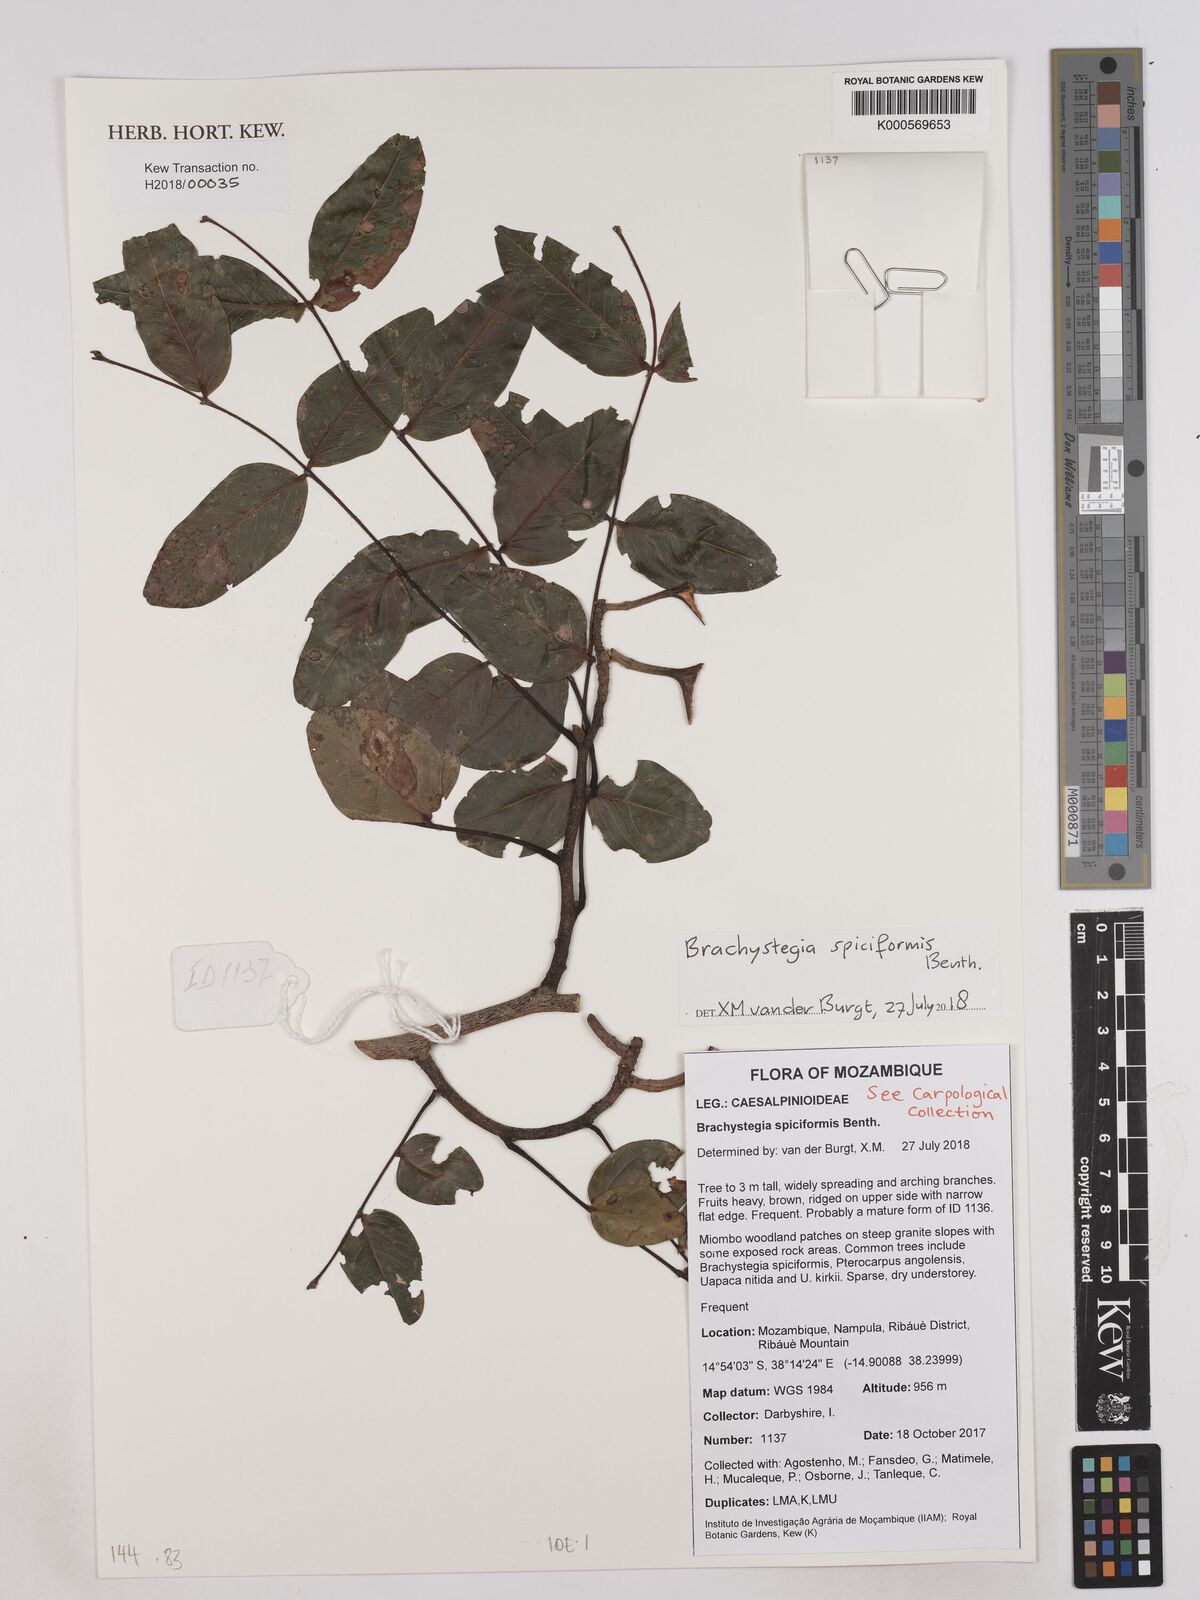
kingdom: Plantae
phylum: Tracheophyta
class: Magnoliopsida
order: Fabales
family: Fabaceae
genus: Brachystegia
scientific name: Brachystegia spiciformis
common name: Zebrawood
